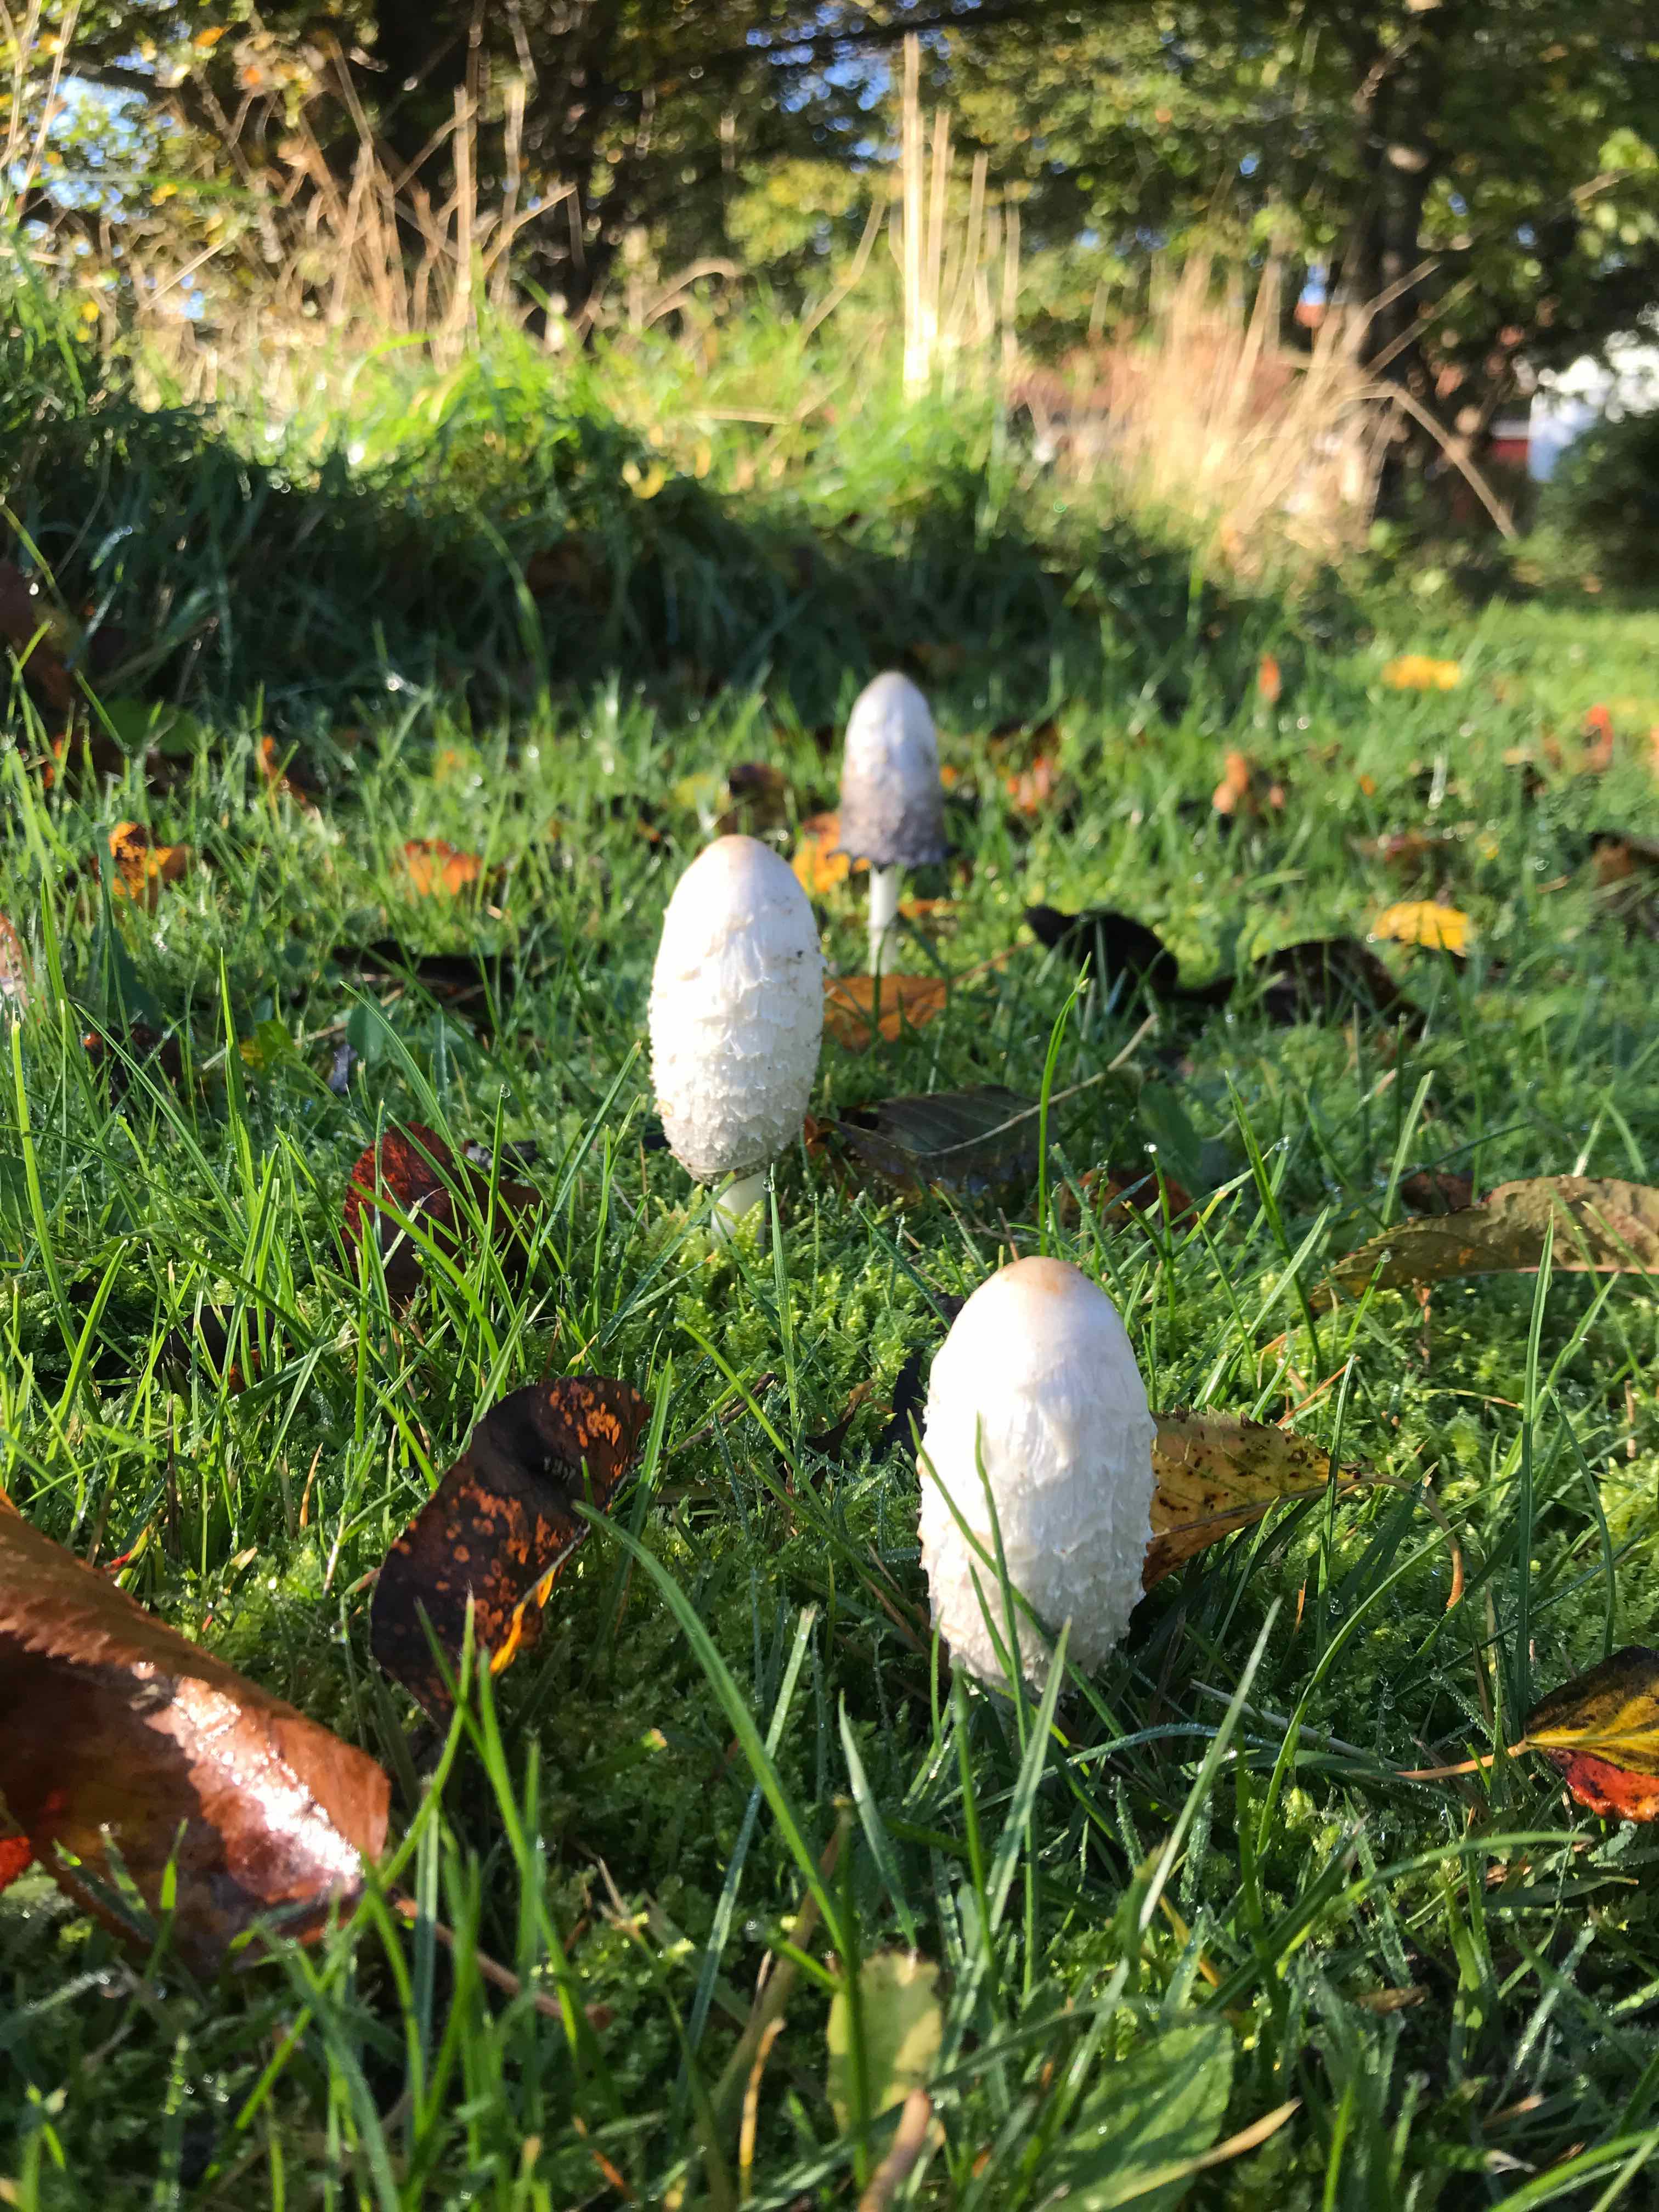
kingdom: Fungi
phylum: Basidiomycota
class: Agaricomycetes
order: Agaricales
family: Agaricaceae
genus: Coprinus
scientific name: Coprinus comatus
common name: stor parykhat
